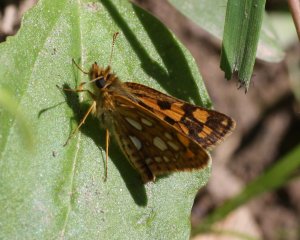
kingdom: Animalia
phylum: Arthropoda
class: Insecta
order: Lepidoptera
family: Hesperiidae
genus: Carterocephalus
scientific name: Carterocephalus palaemon
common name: Chequered Skipper
